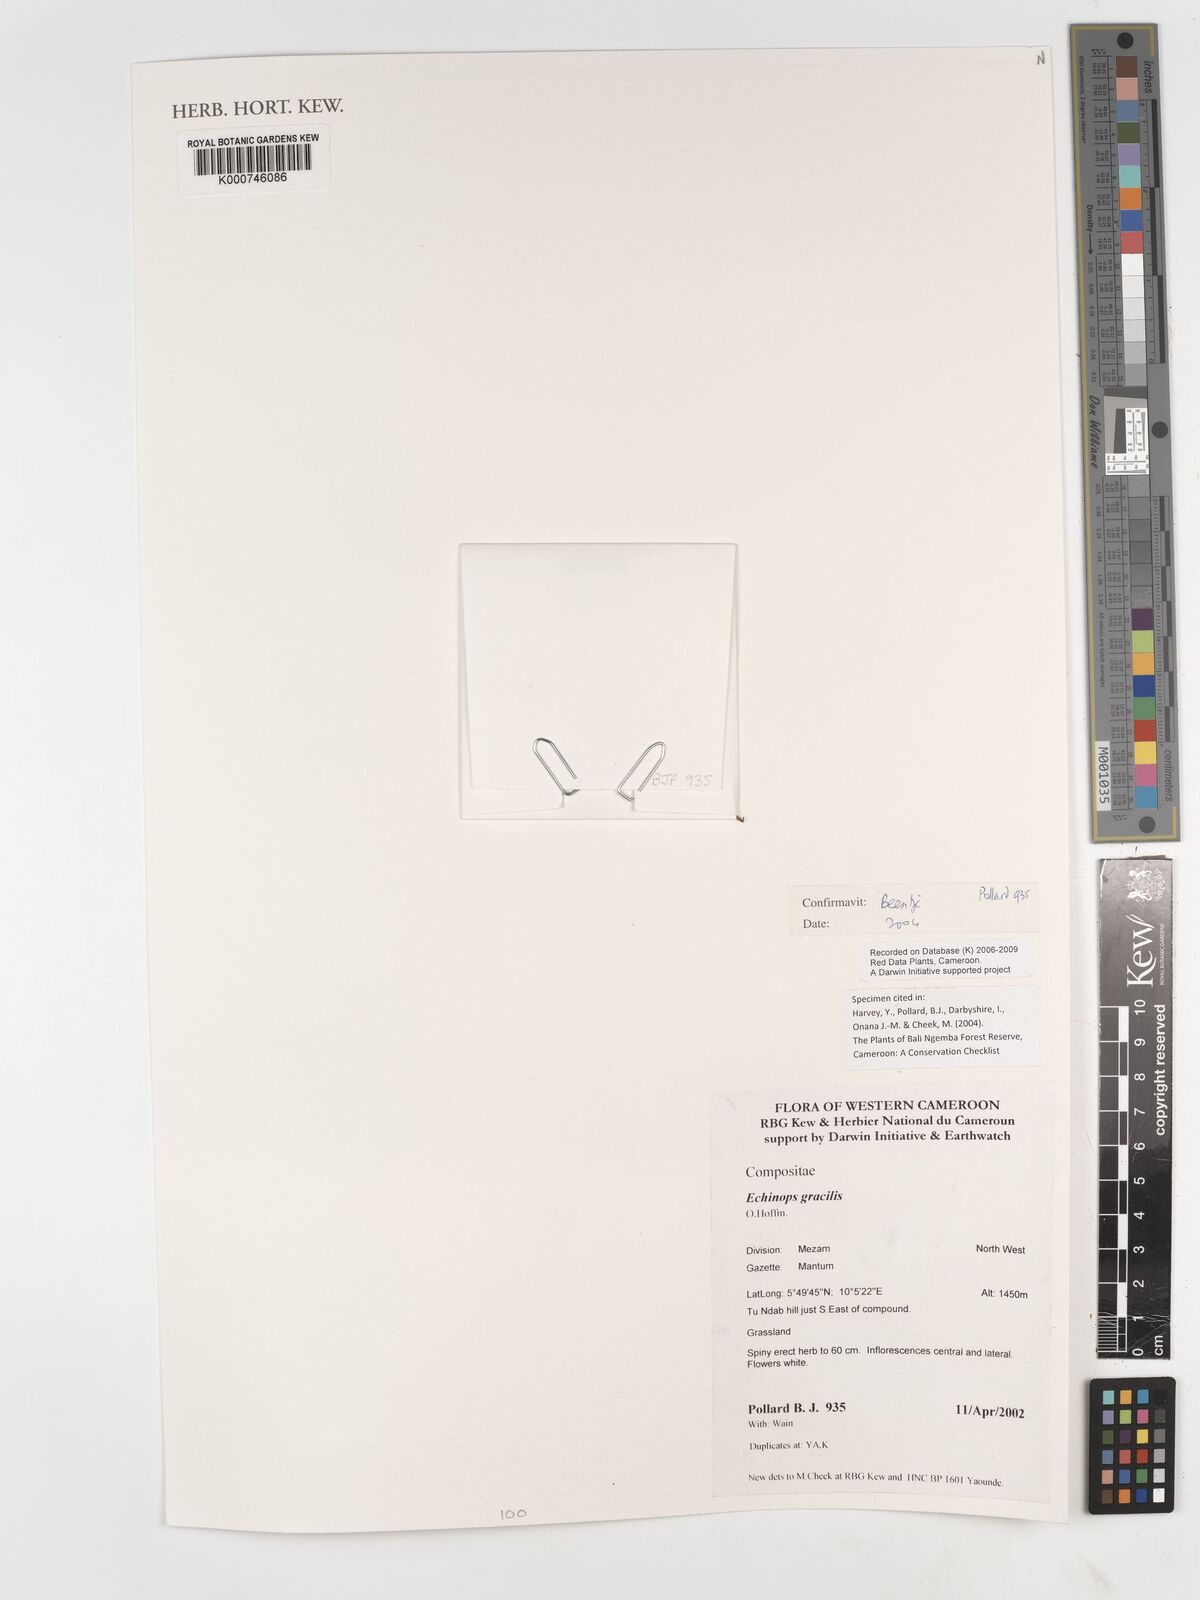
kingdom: Plantae
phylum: Tracheophyta
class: Magnoliopsida
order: Asterales
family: Asteraceae
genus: Echinops
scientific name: Echinops gracilis
